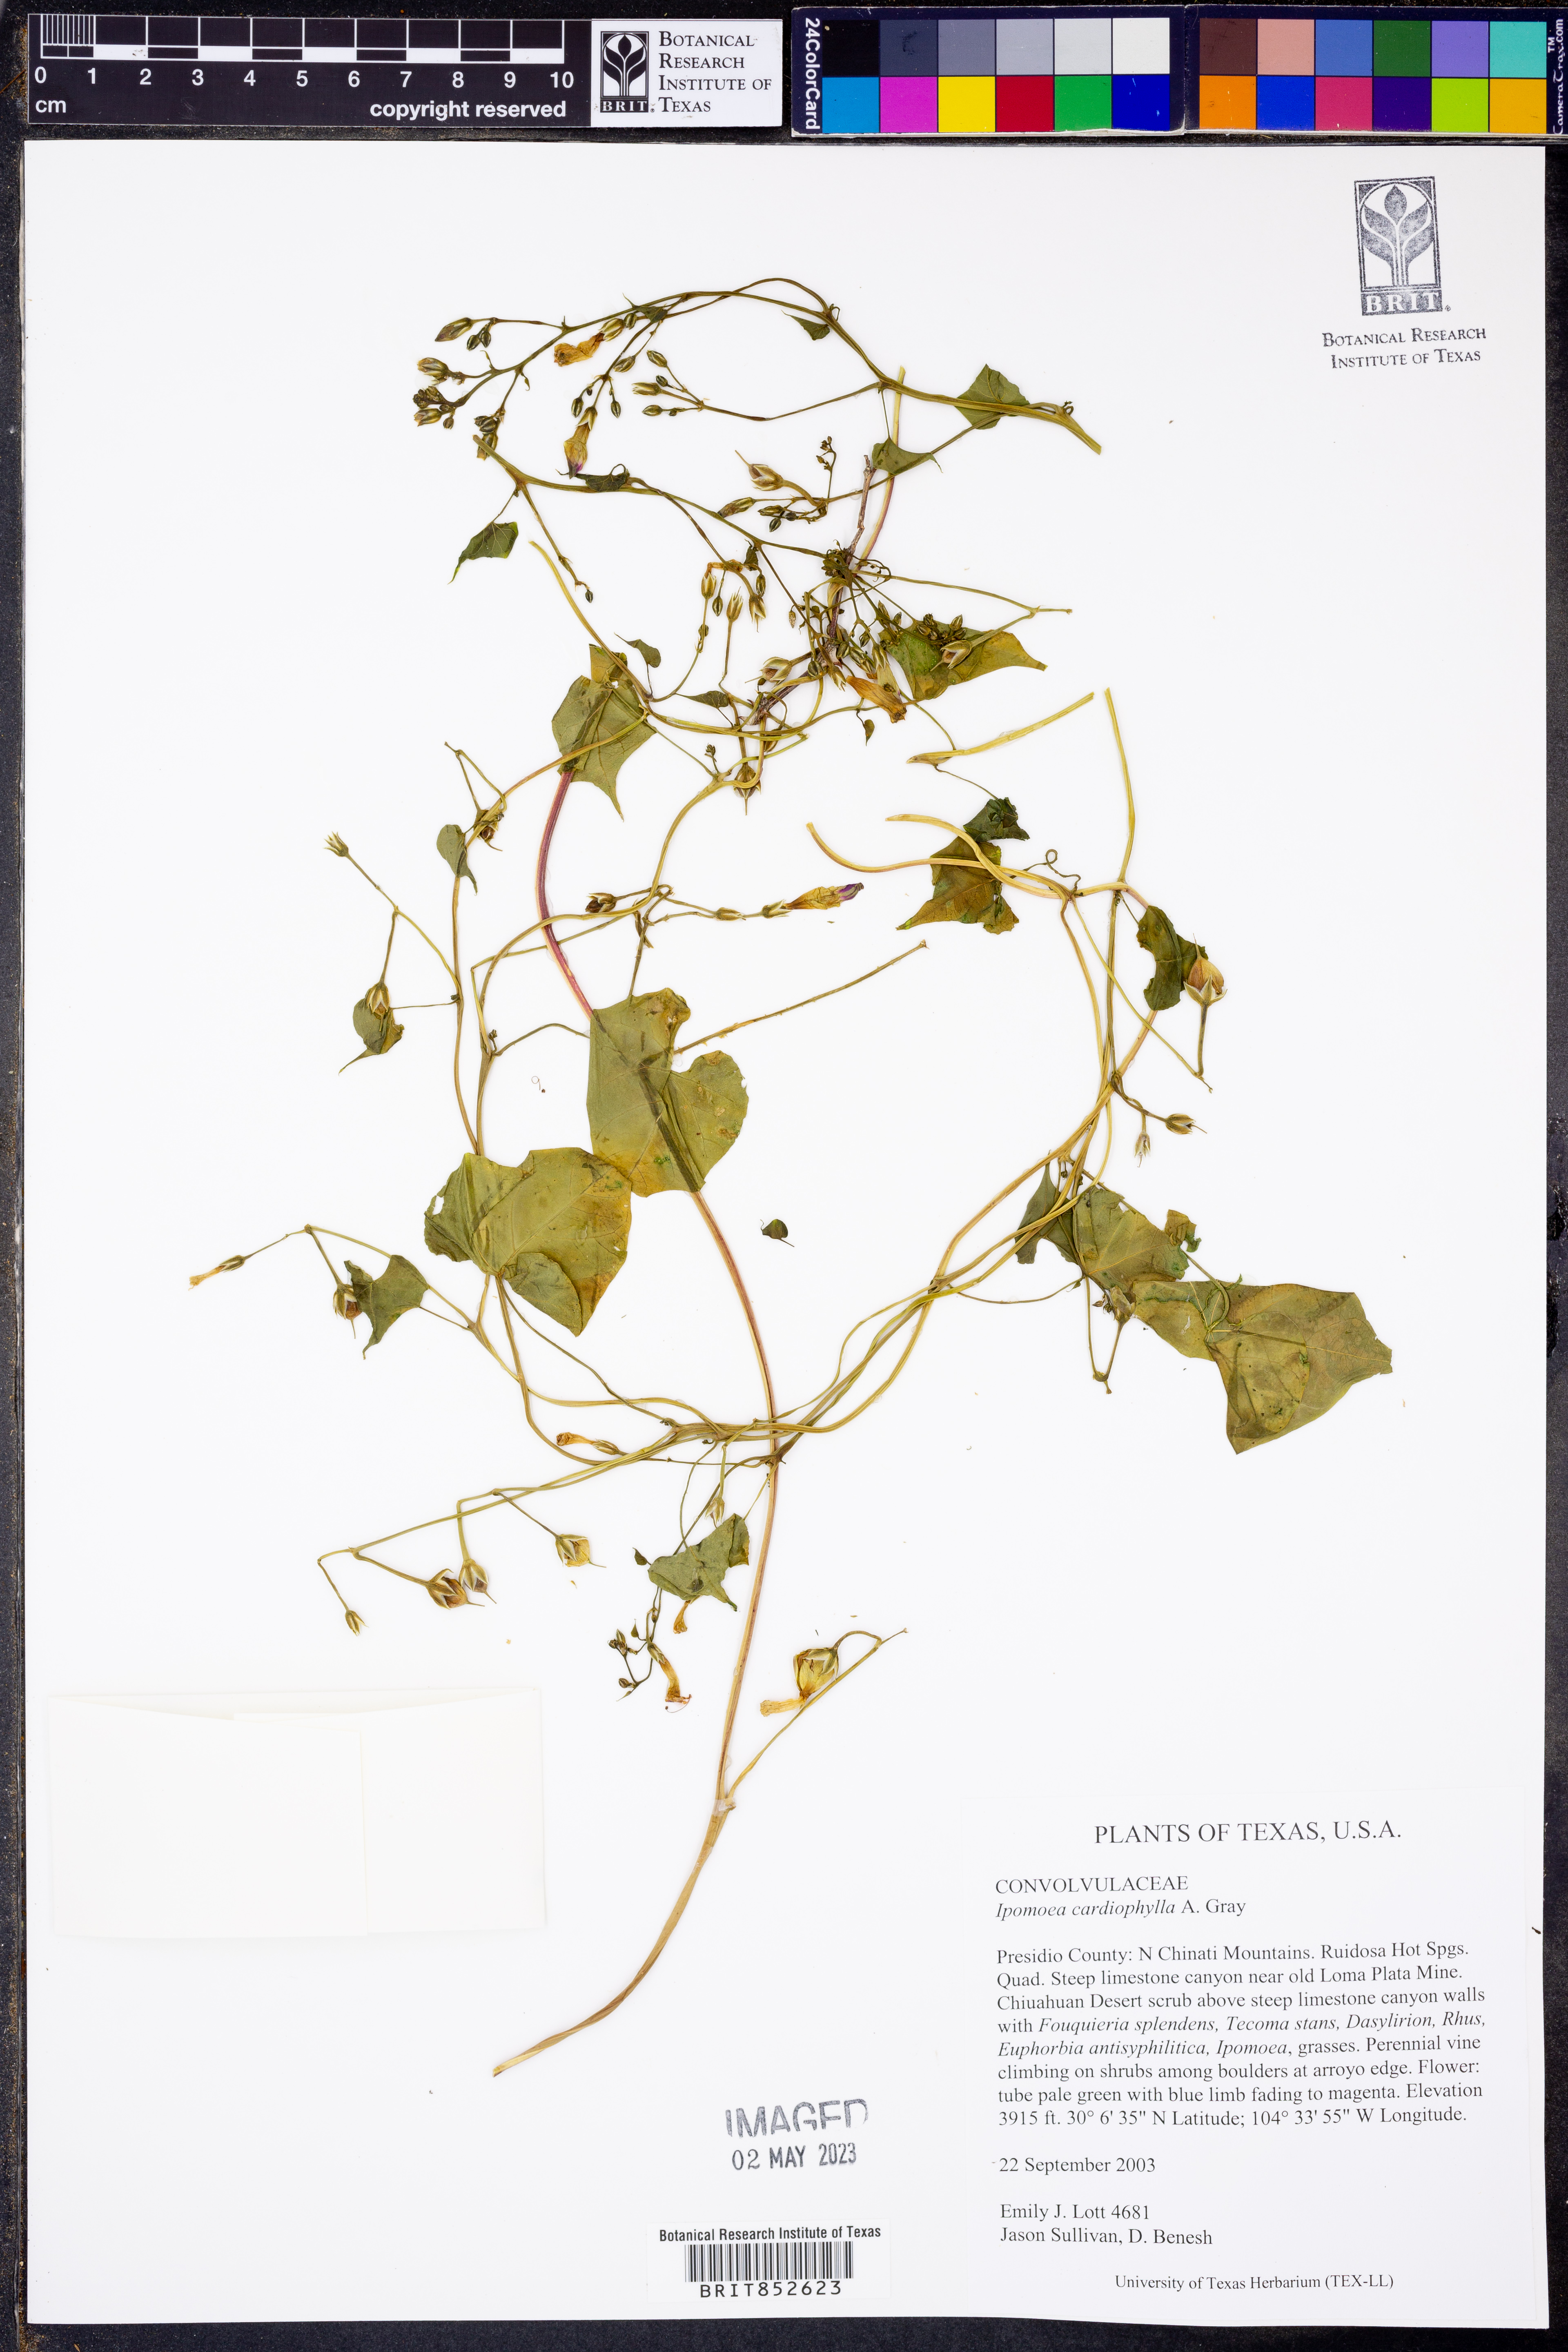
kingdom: Plantae
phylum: Tracheophyta
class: Magnoliopsida
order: Solanales
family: Convolvulaceae
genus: Ipomoea
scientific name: Ipomoea cardiophylla
